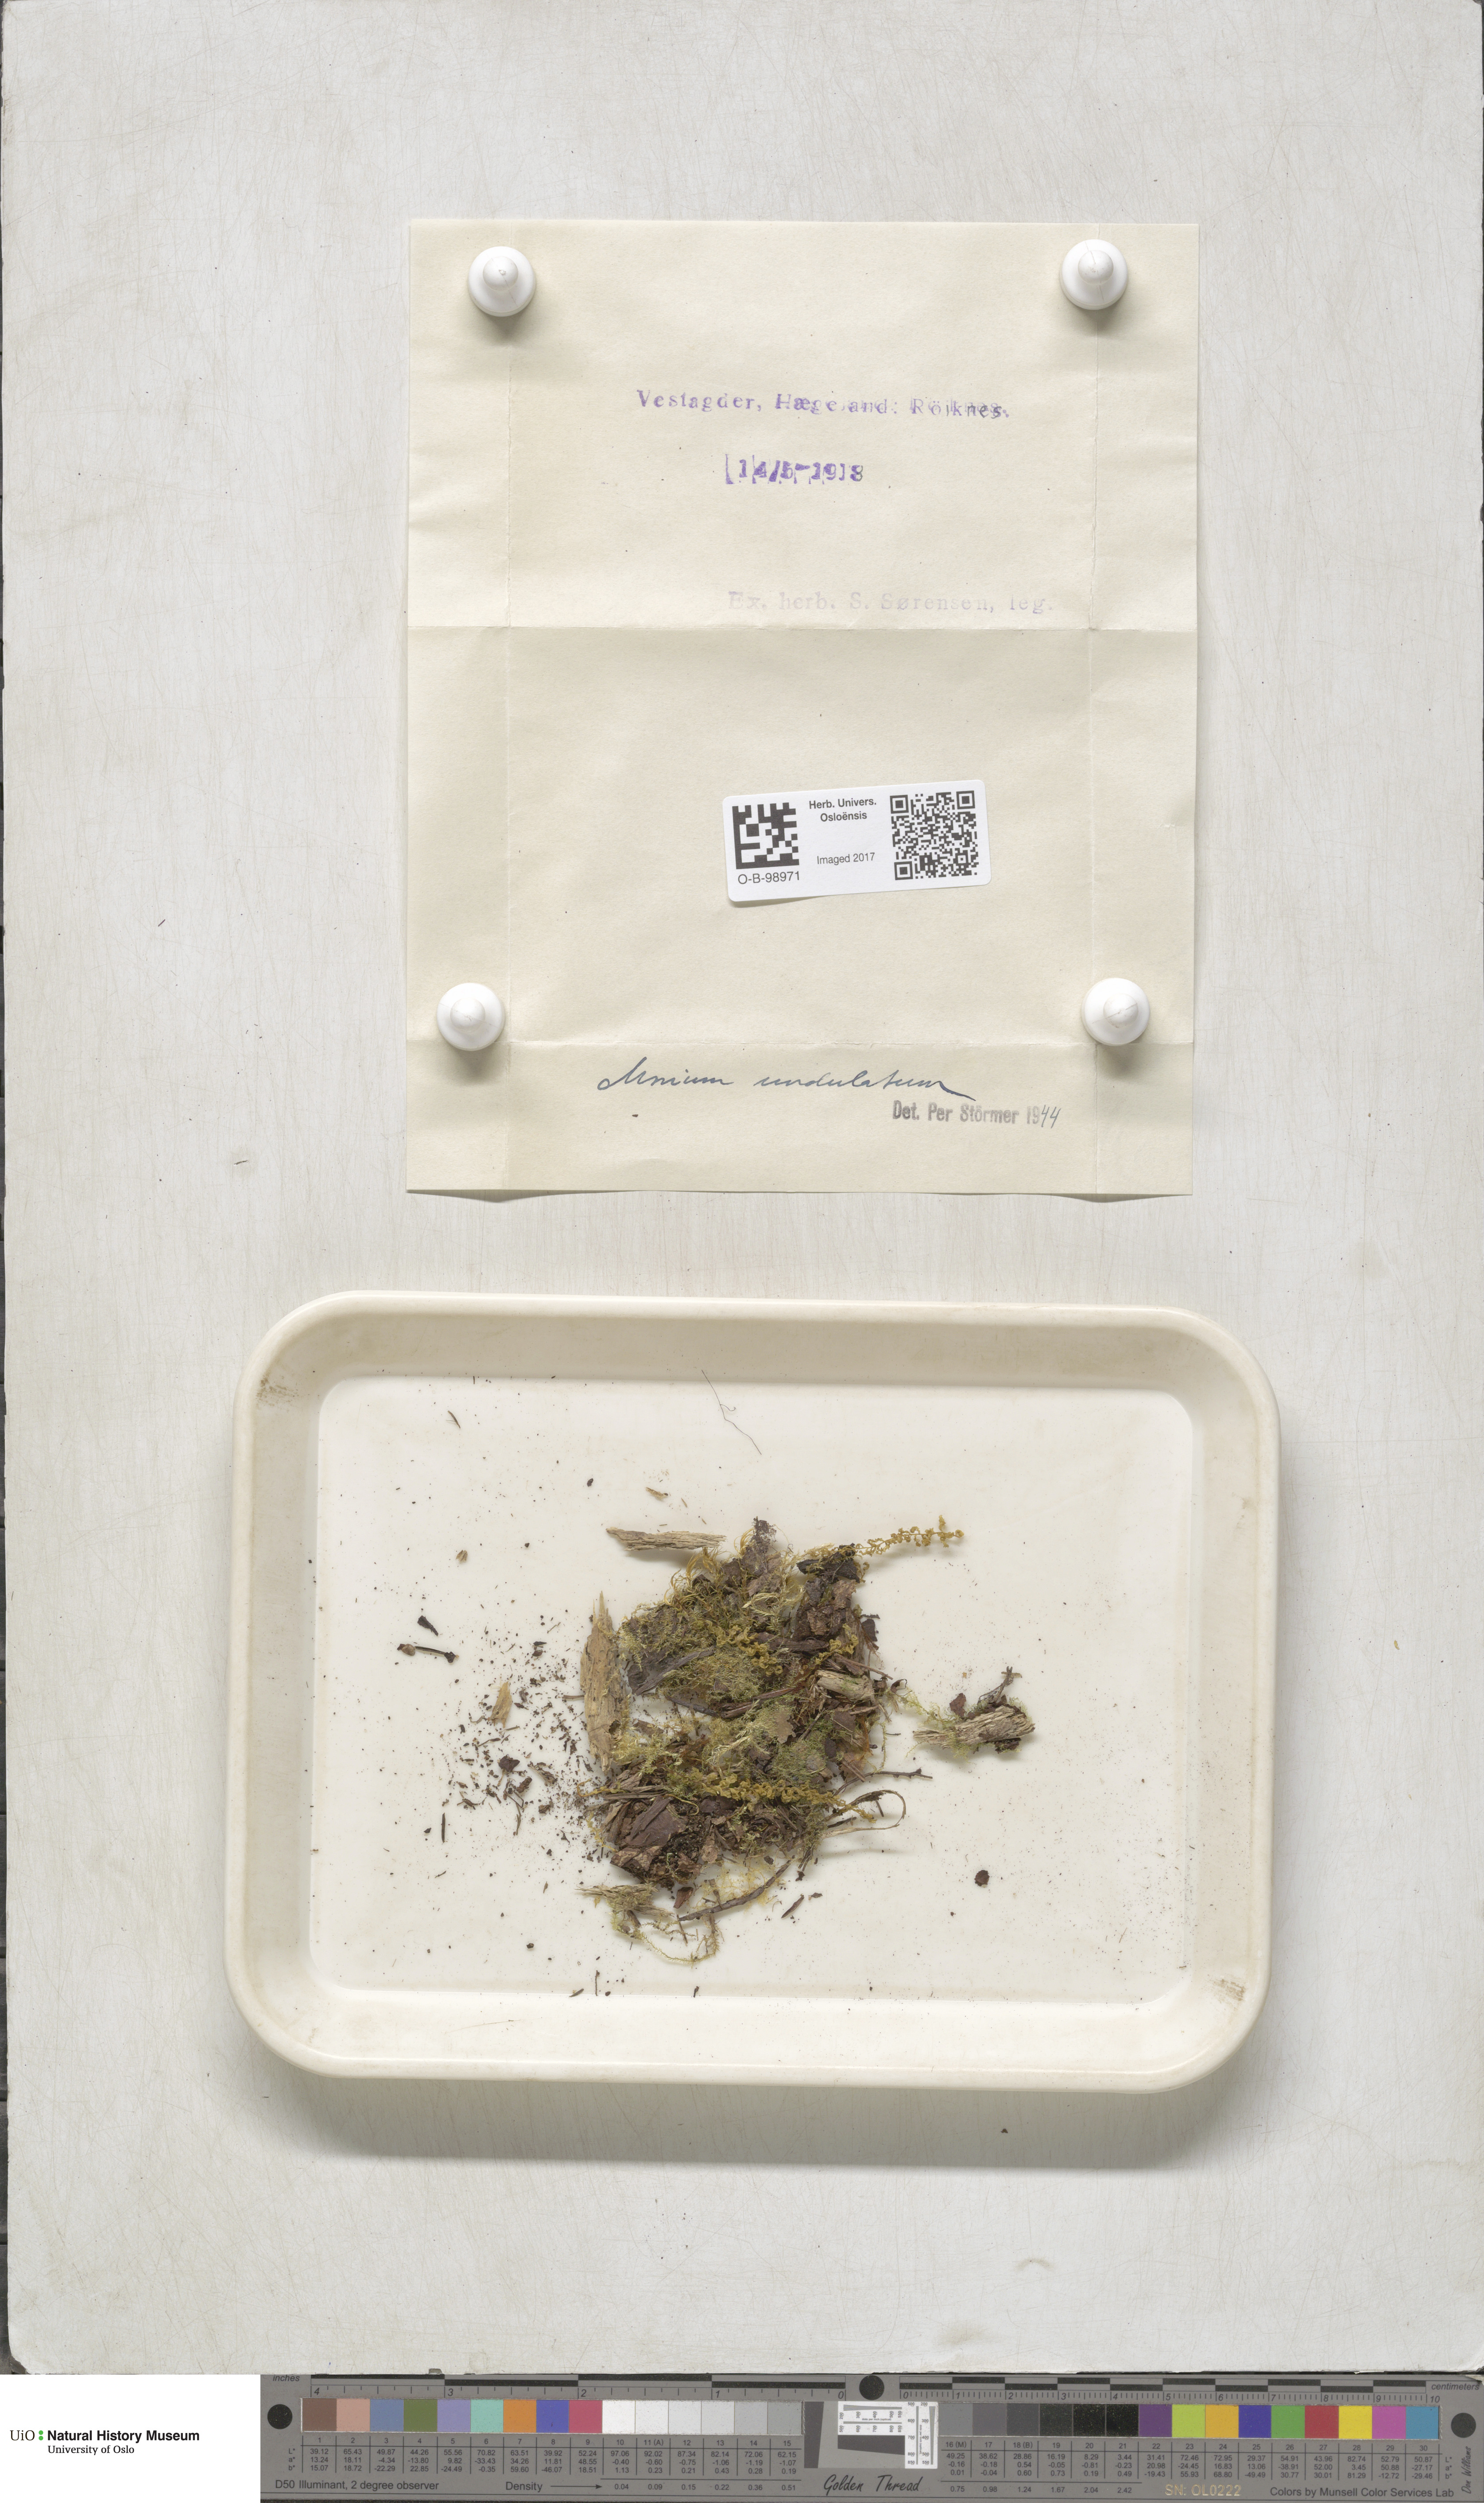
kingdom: Plantae
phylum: Bryophyta
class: Bryopsida
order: Bryales
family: Mniaceae
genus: Plagiomnium
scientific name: Plagiomnium undulatum
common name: Hart's-tongue thyme-moss
